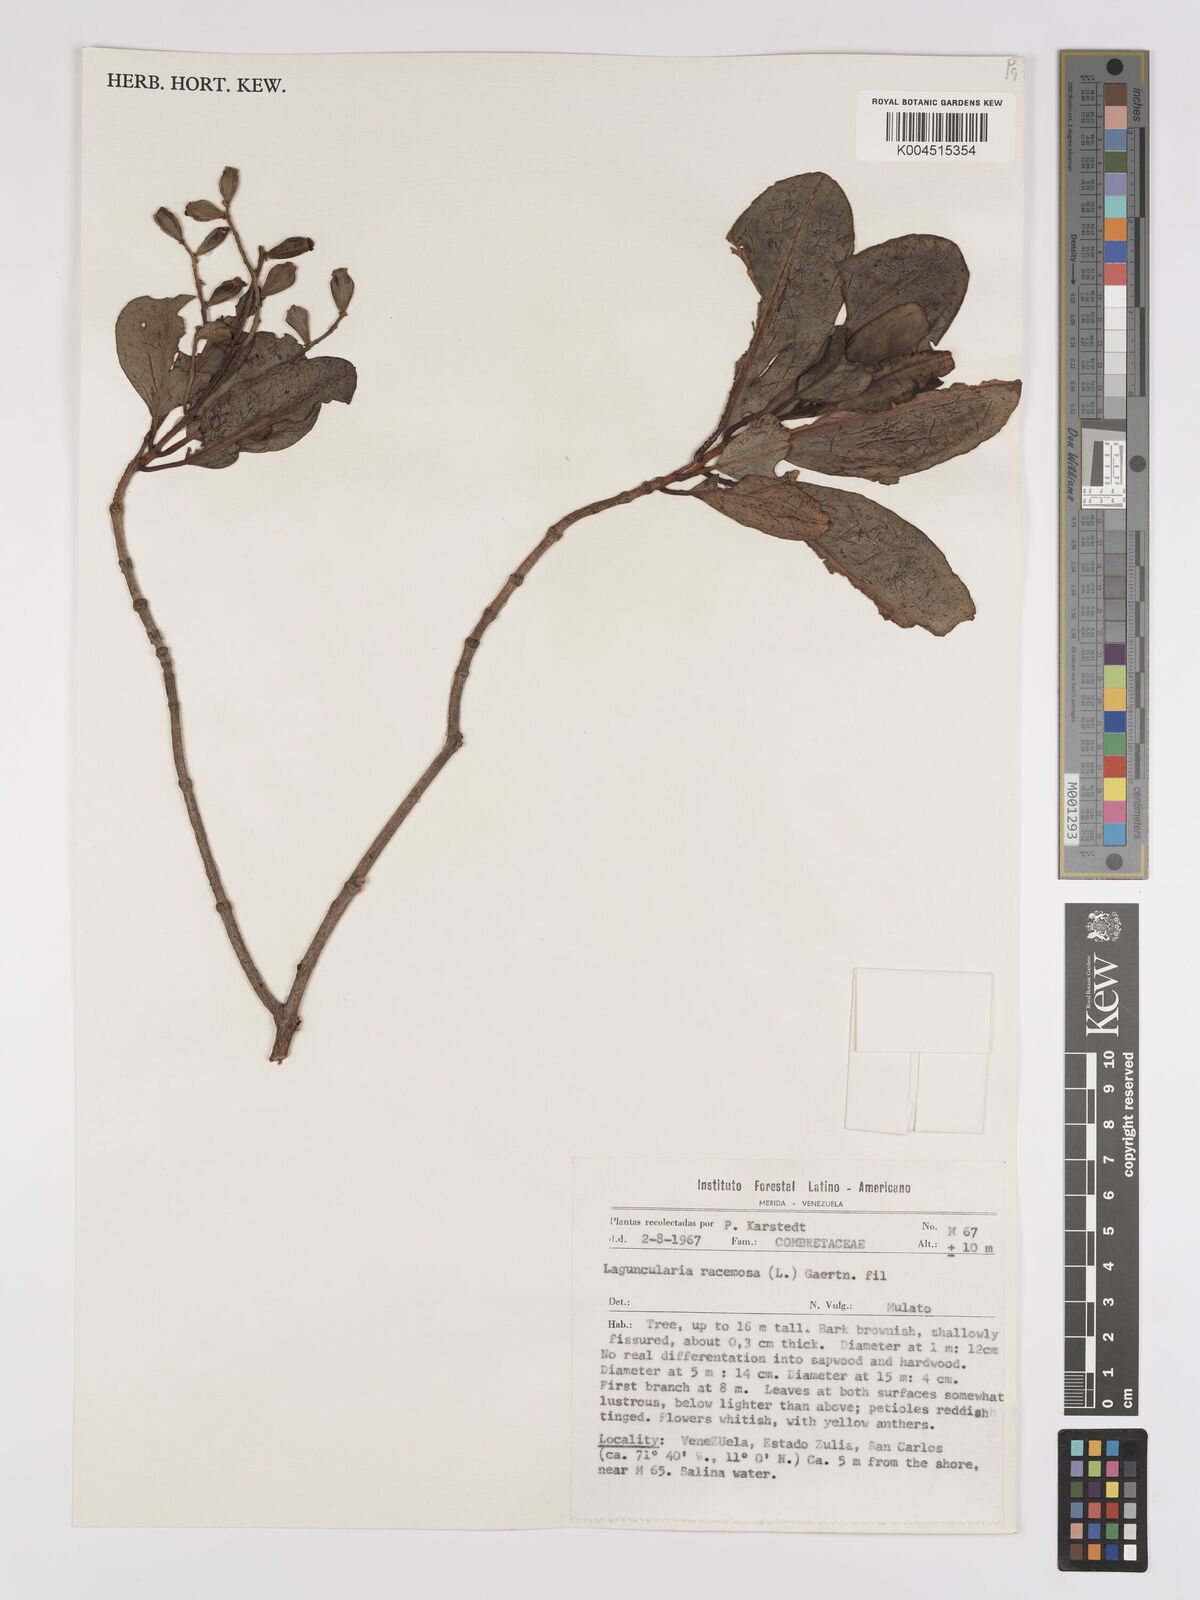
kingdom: Plantae
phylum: Tracheophyta
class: Magnoliopsida
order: Myrtales
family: Combretaceae
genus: Laguncularia
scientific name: Laguncularia racemosa
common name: White mangrove
